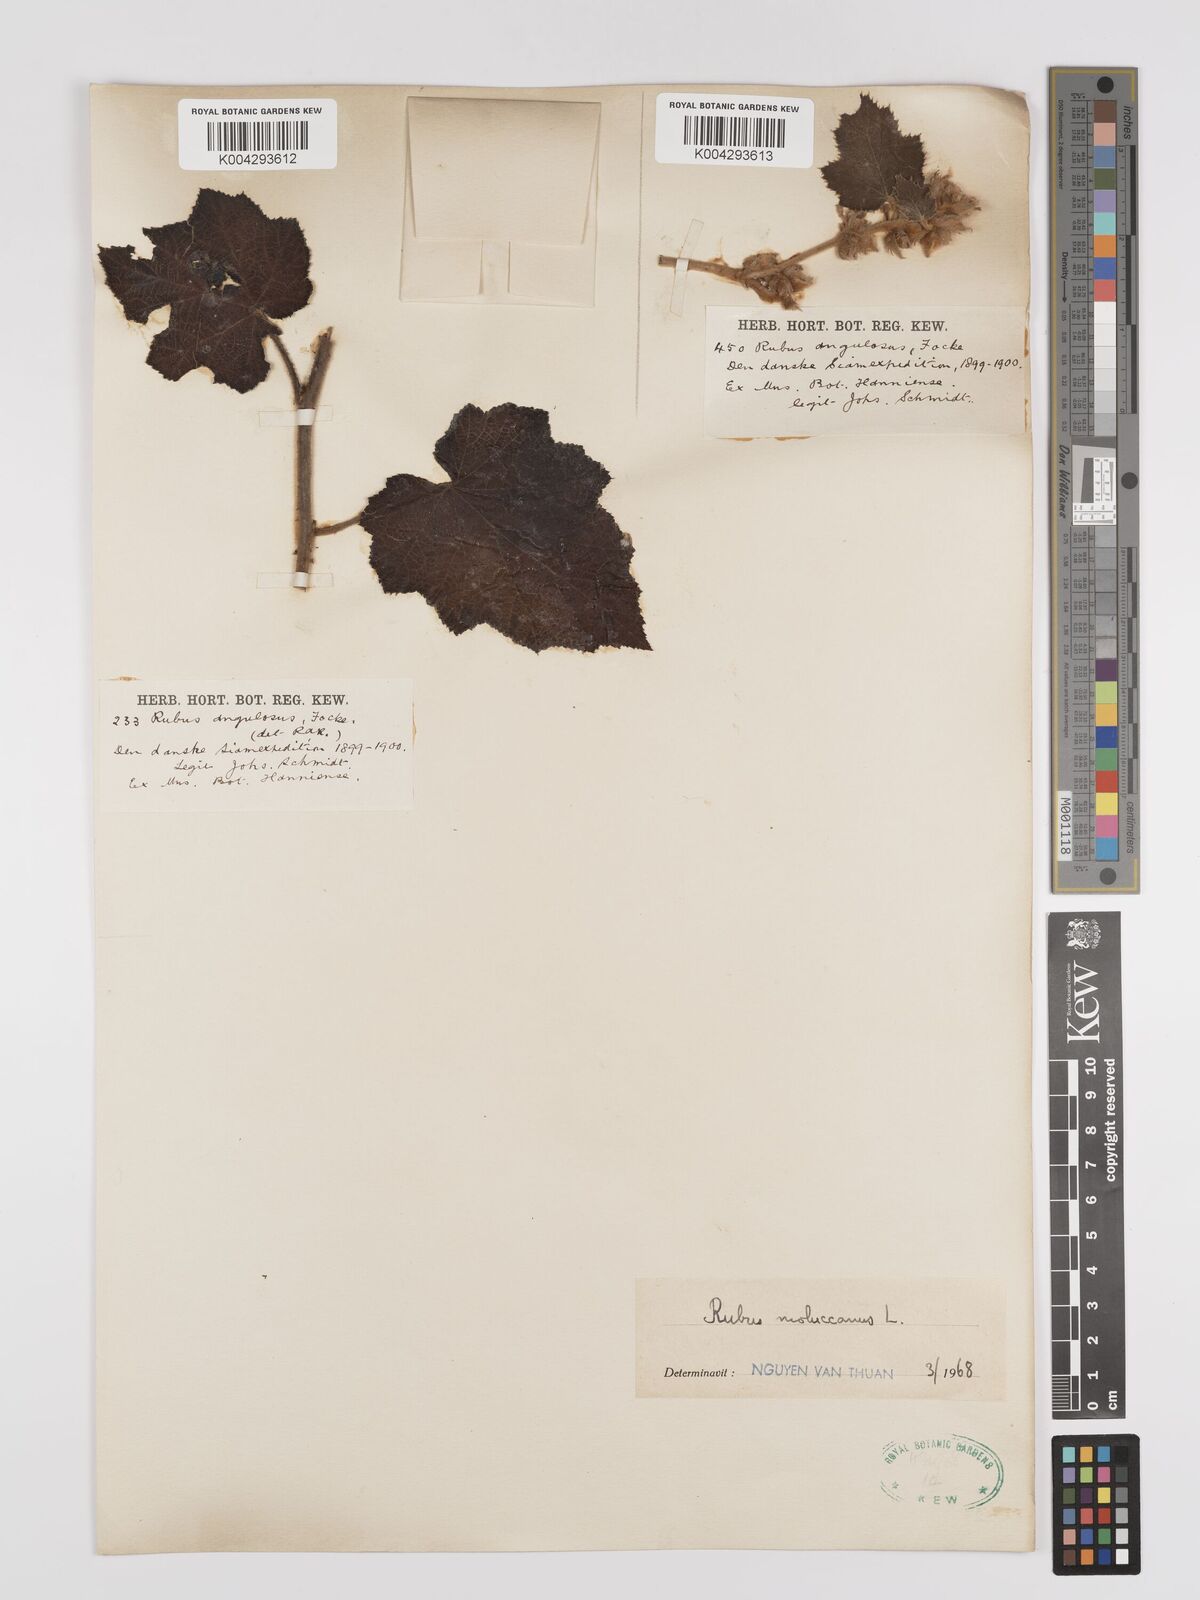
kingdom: Plantae
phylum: Tracheophyta
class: Magnoliopsida
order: Rosales
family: Rosaceae
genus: Rubus
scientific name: Rubus moluccanus
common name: Wild raspberry
